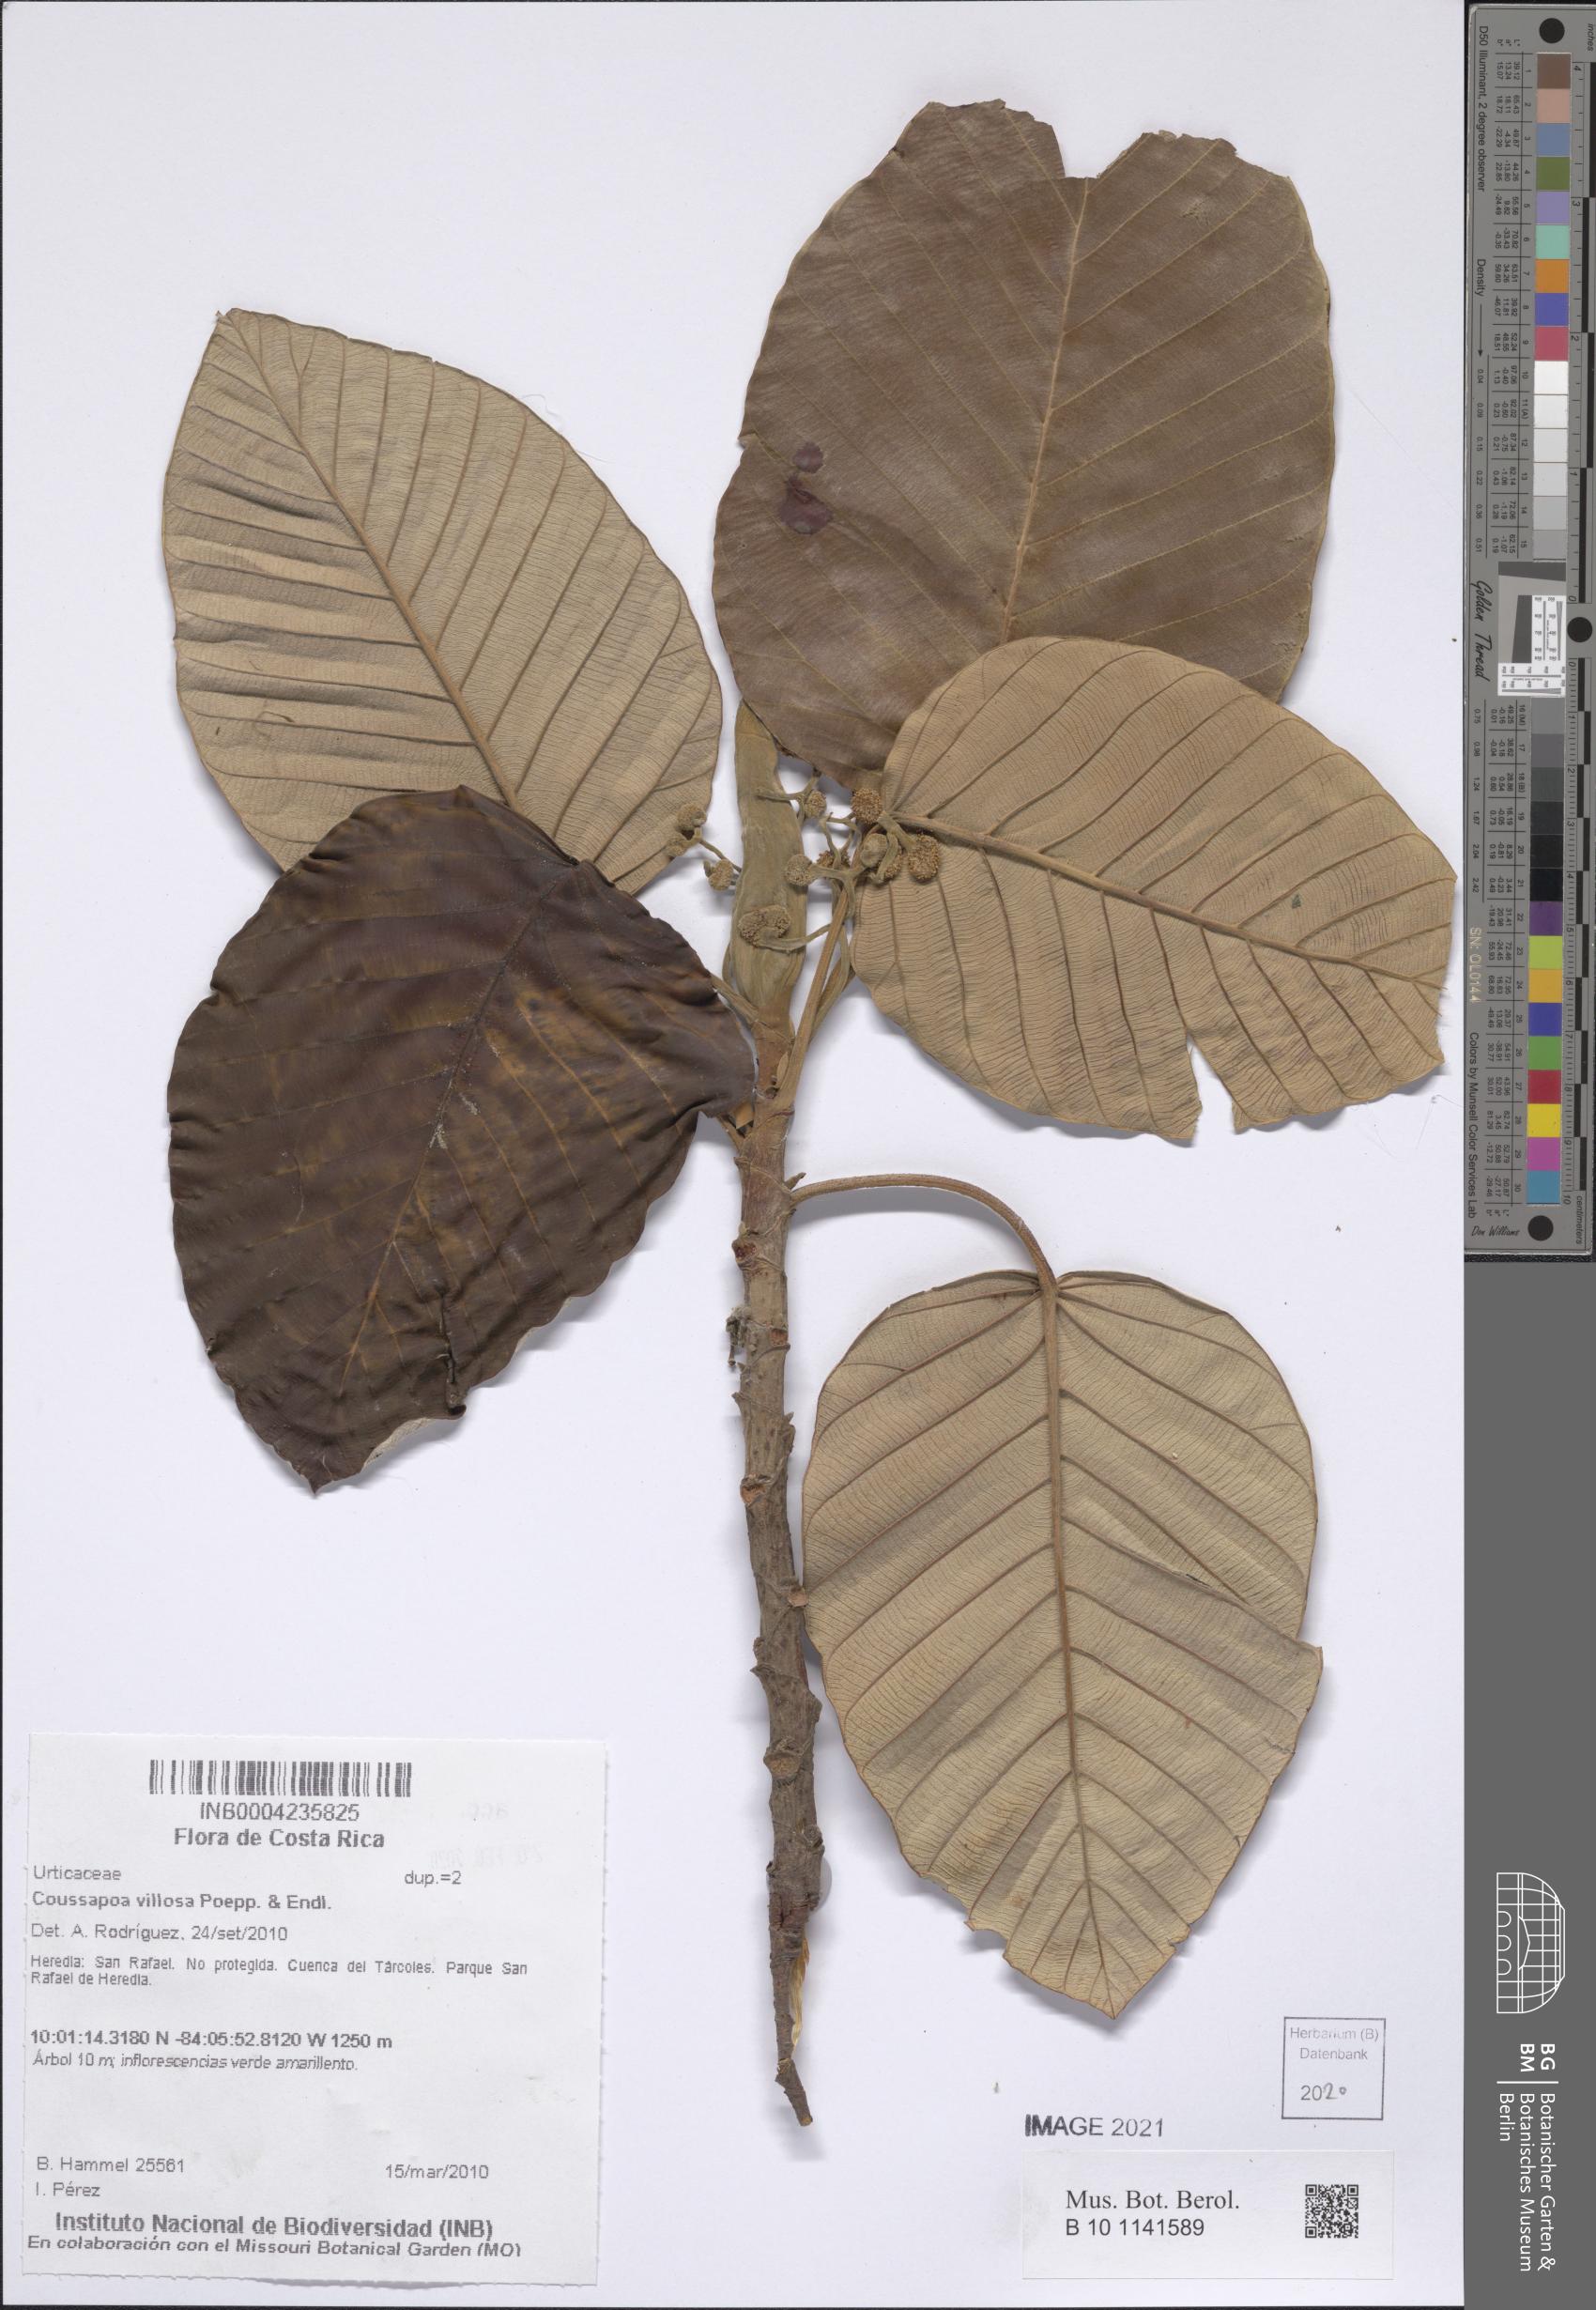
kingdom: Plantae
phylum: Tracheophyta
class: Magnoliopsida
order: Rosales
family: Urticaceae
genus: Coussapoa
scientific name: Coussapoa villosa
